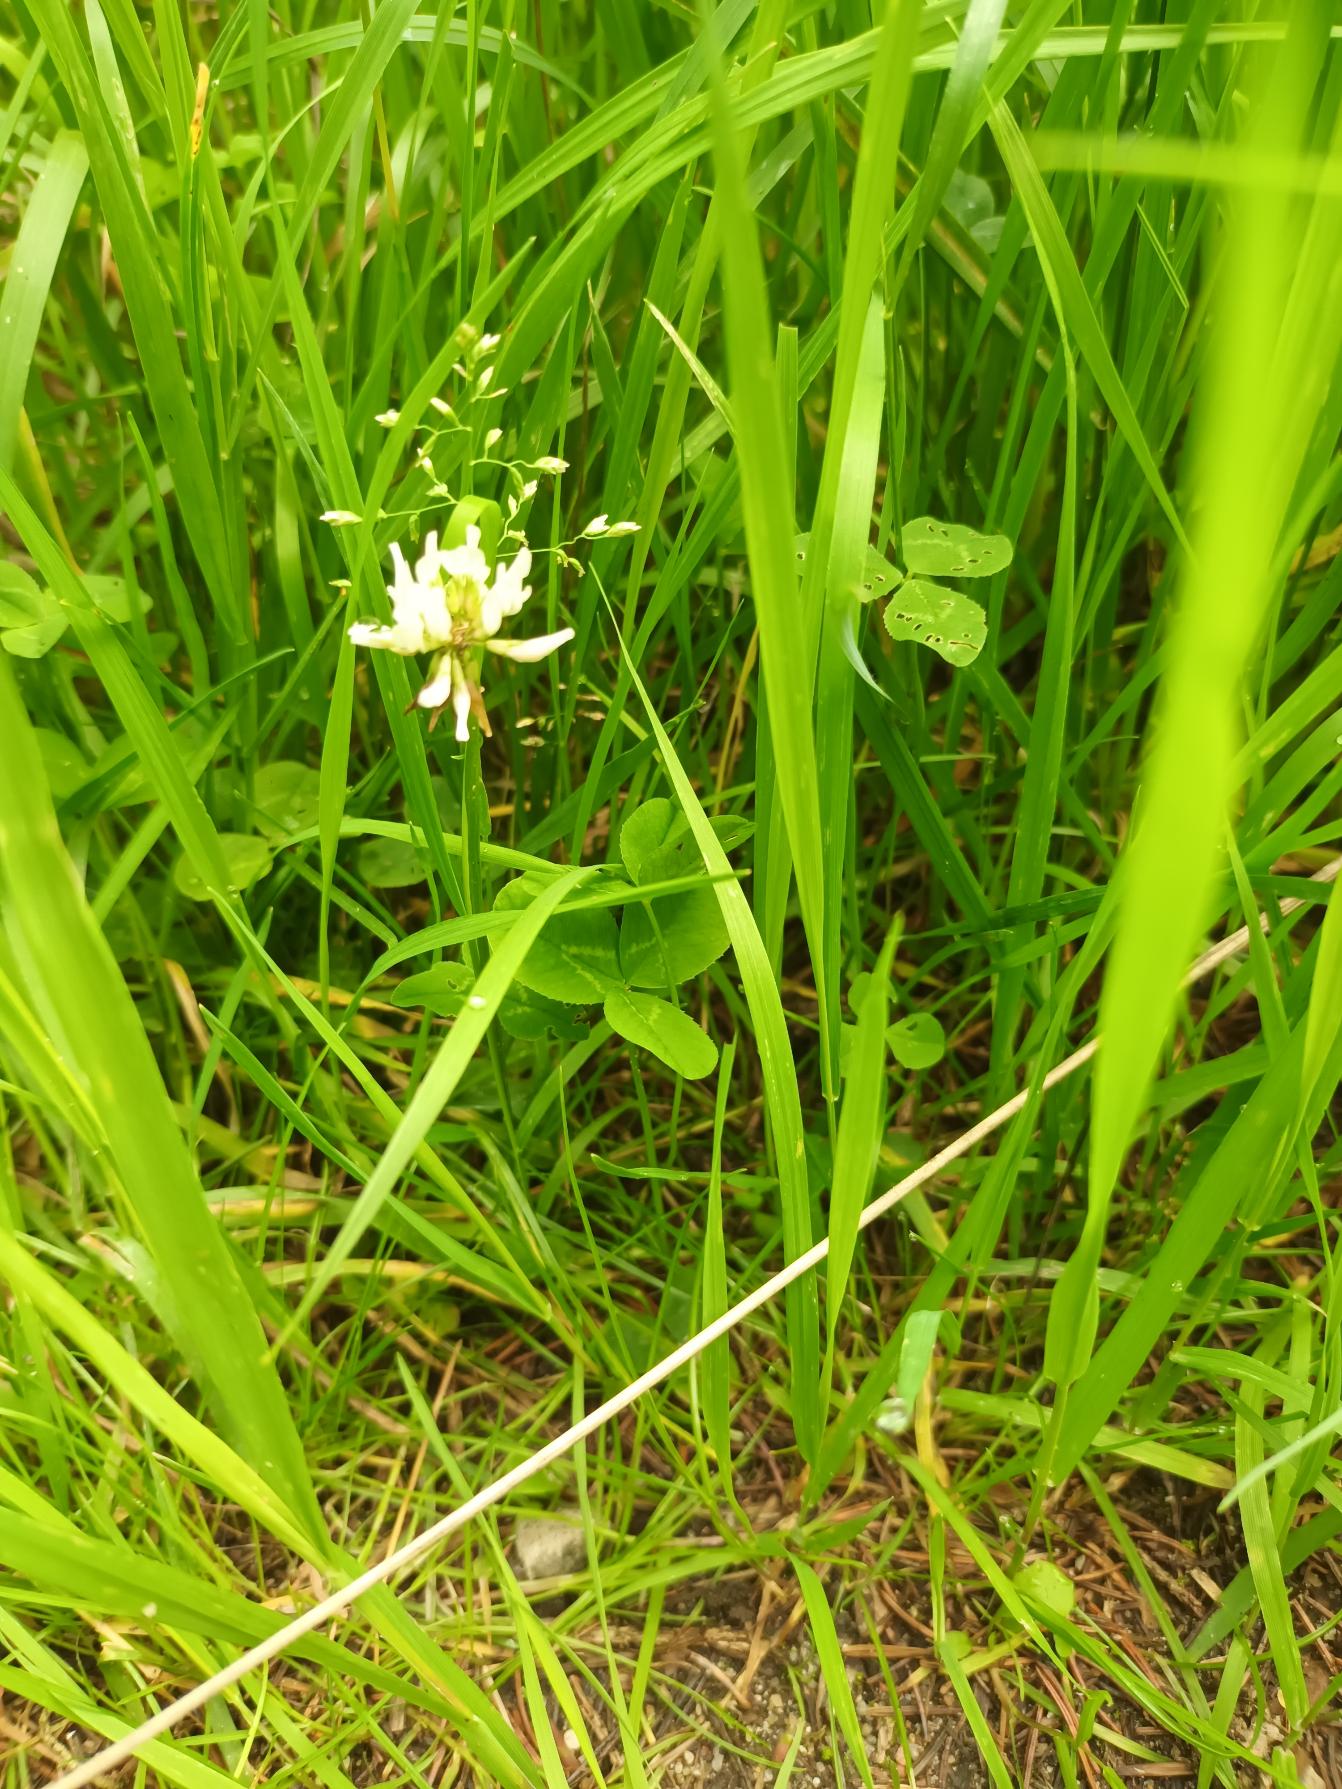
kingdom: Plantae
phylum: Tracheophyta
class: Magnoliopsida
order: Fabales
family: Fabaceae
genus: Trifolium
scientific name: Trifolium repens
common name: Hvid-kløver
